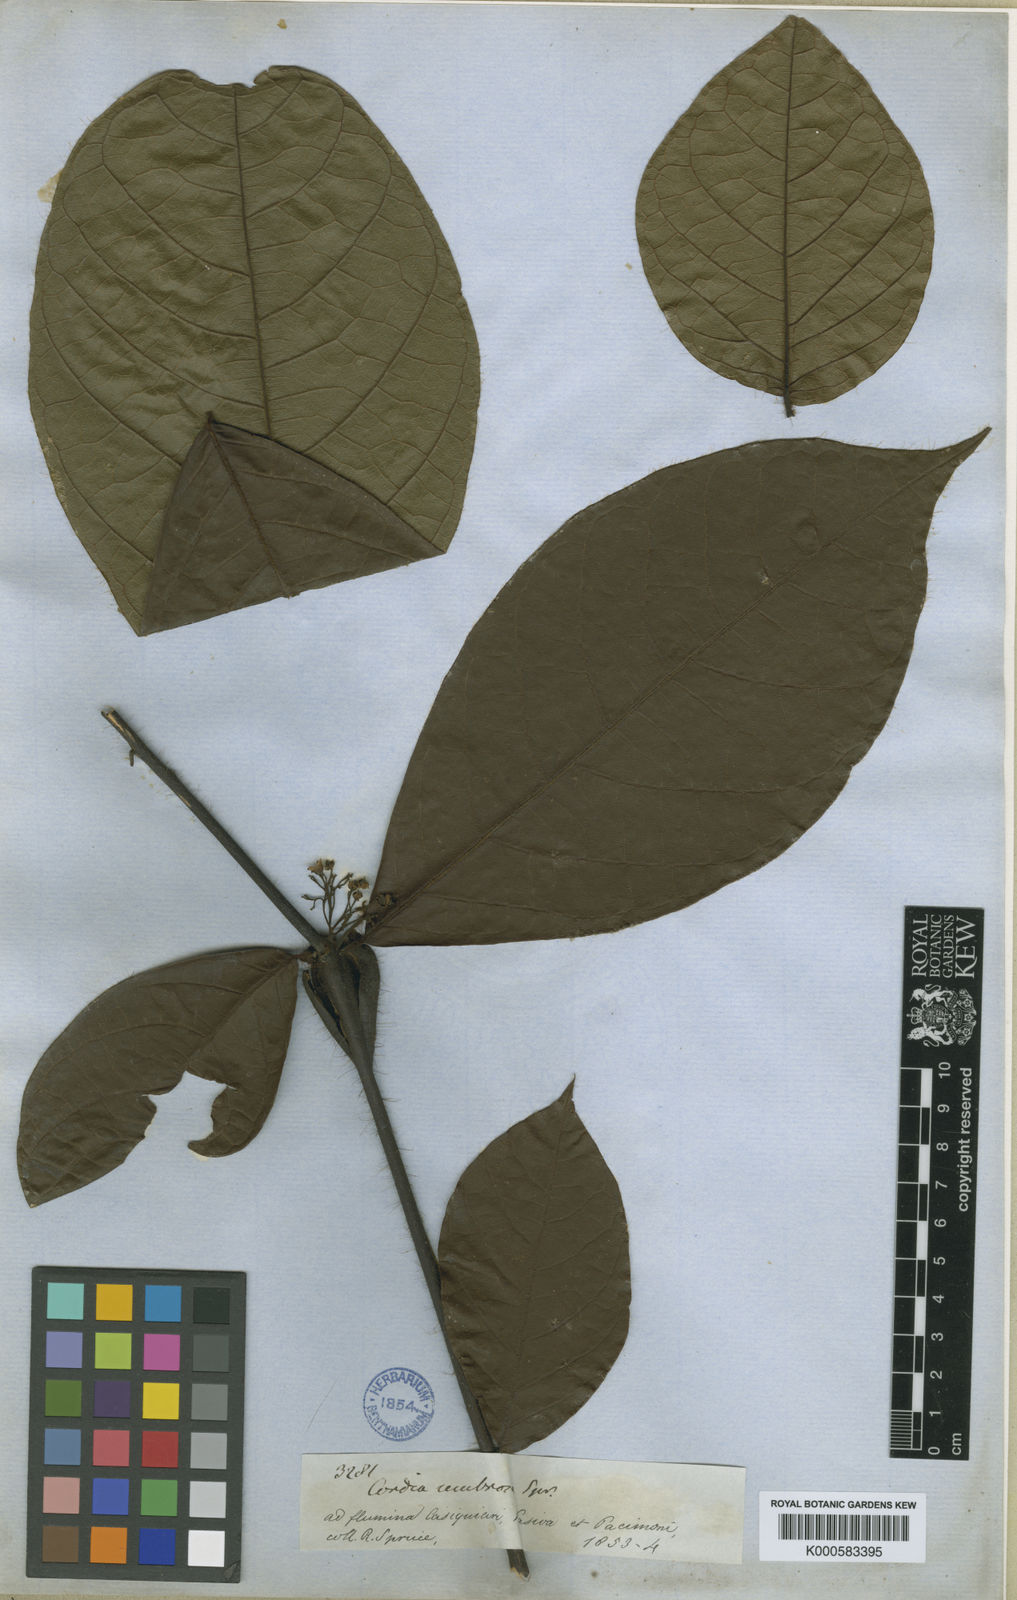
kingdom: Plantae
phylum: Tracheophyta
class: Magnoliopsida
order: Boraginales
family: Cordiaceae
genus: Cordia
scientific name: Cordia nodosa
